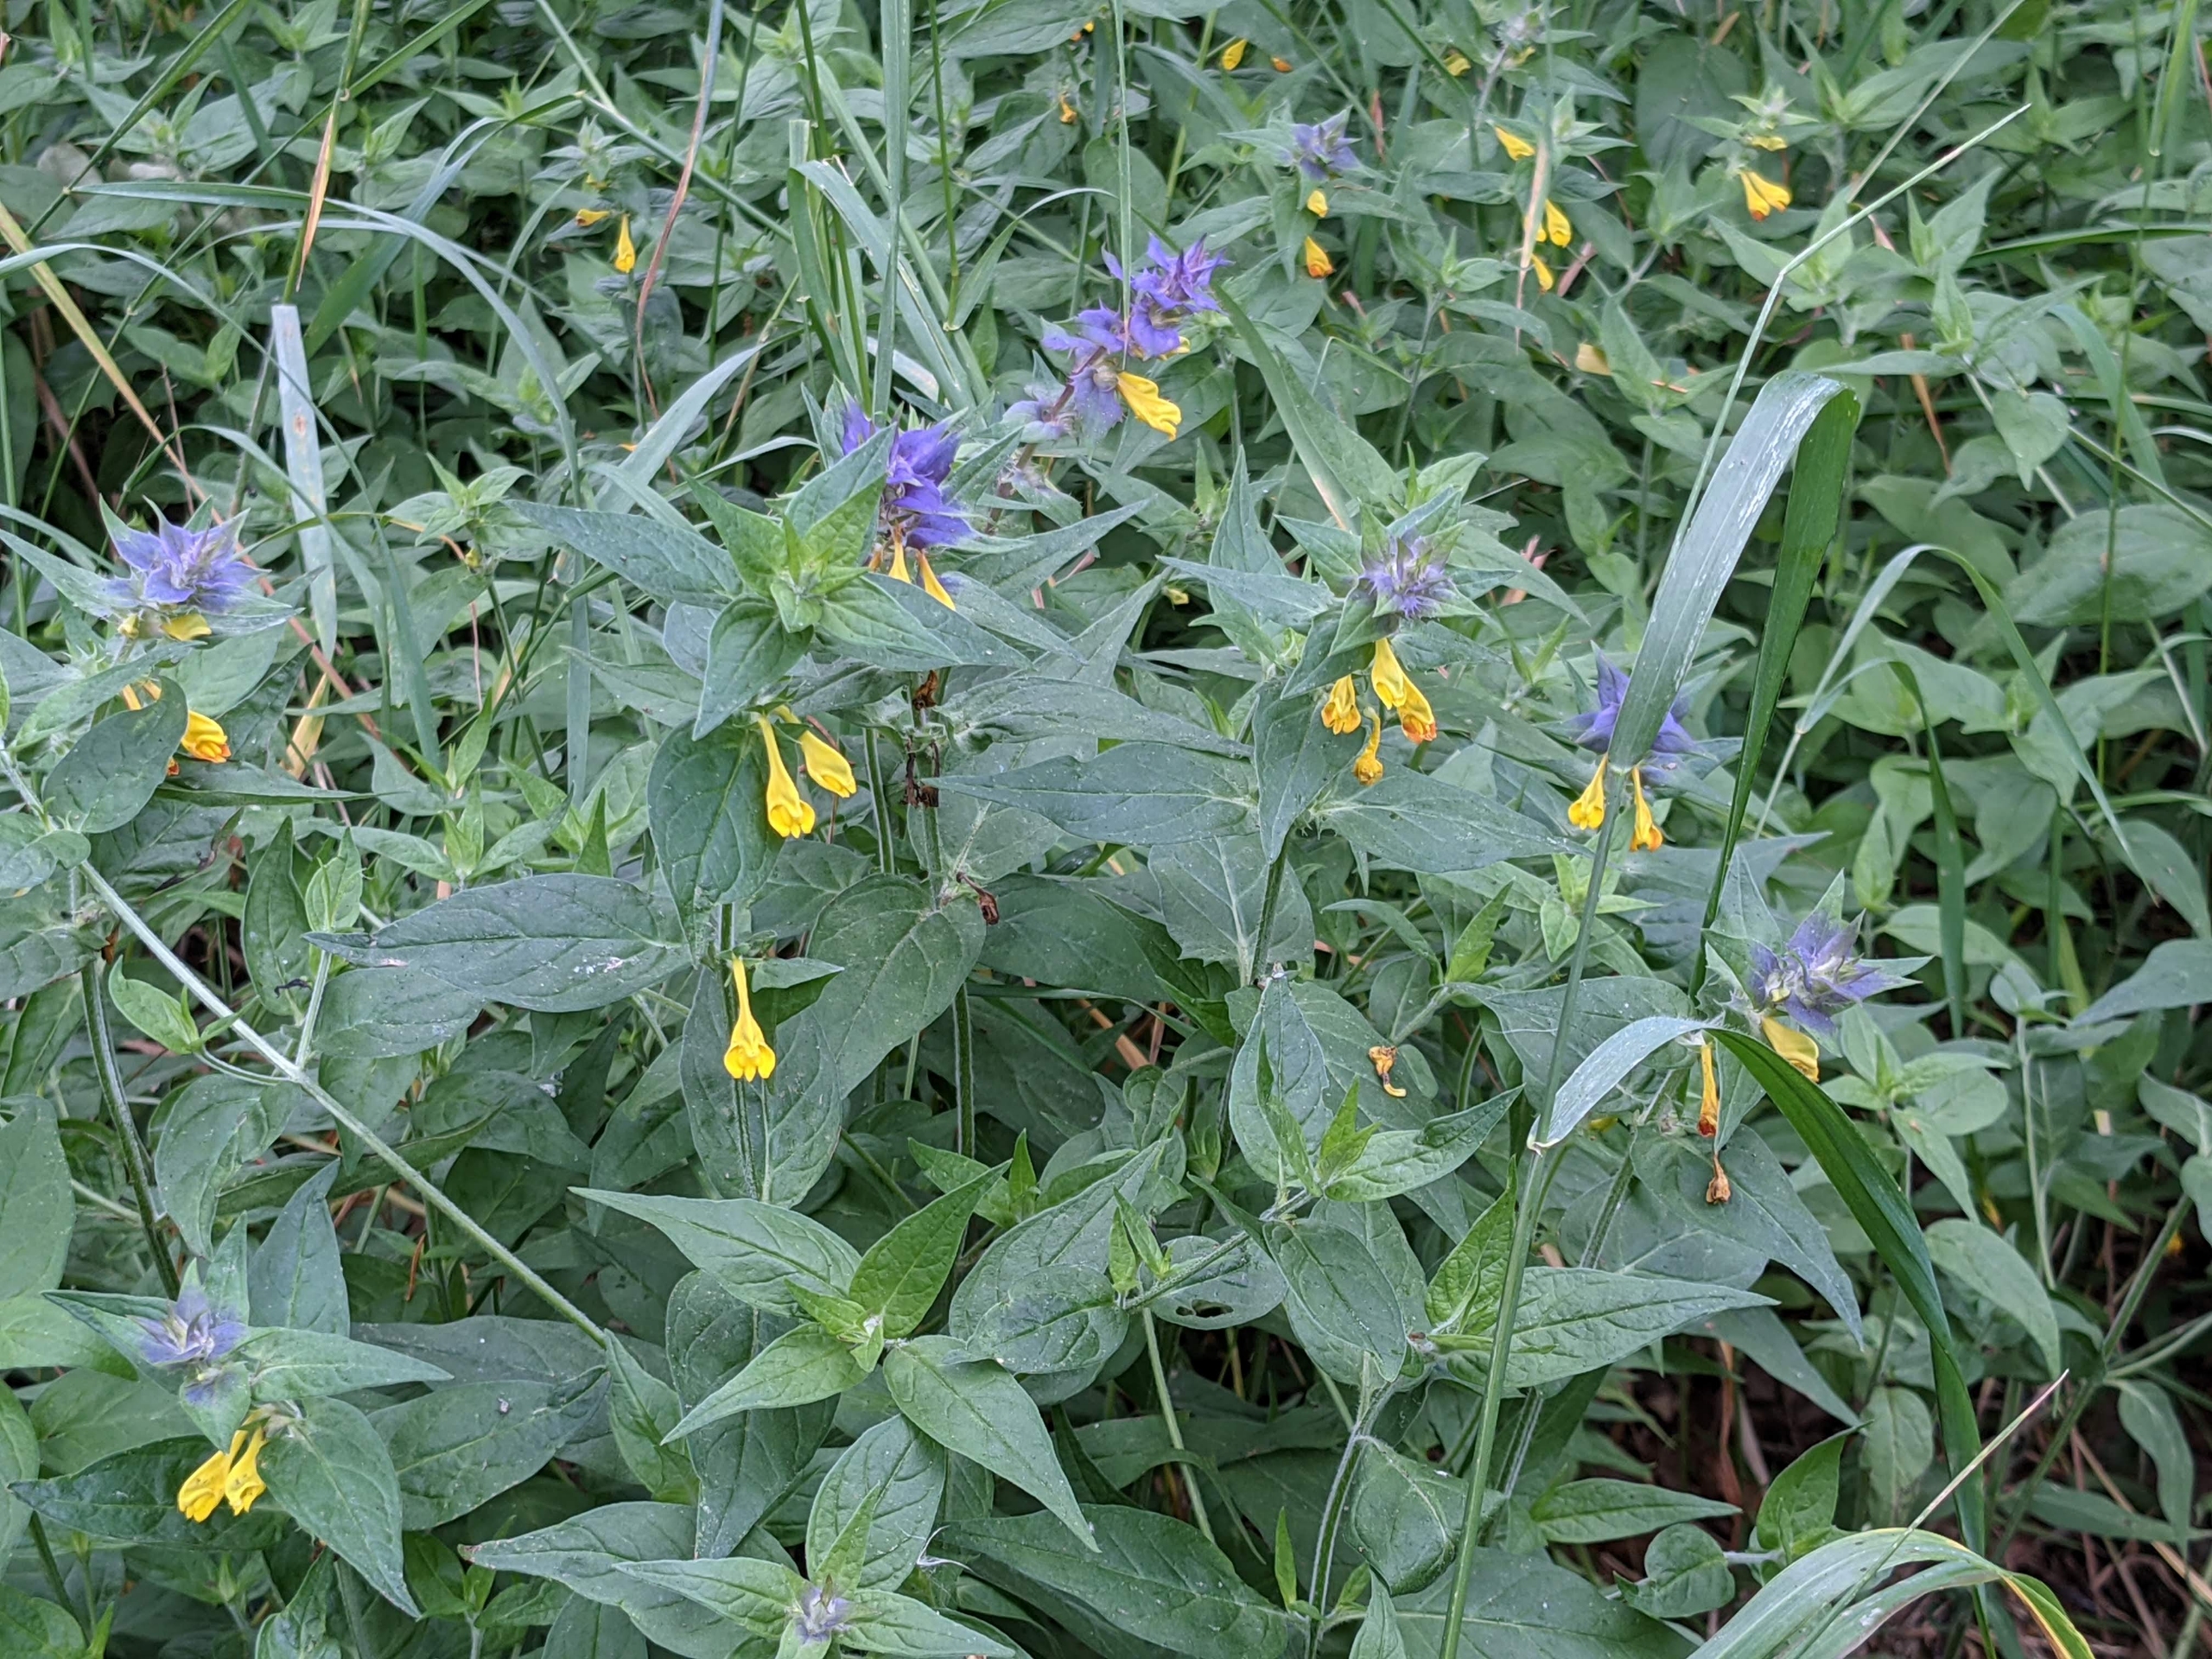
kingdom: Plantae
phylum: Tracheophyta
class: Magnoliopsida
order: Lamiales
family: Orobanchaceae
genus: Melampyrum
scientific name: Melampyrum nemorosum
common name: Blåtoppet kohvede
